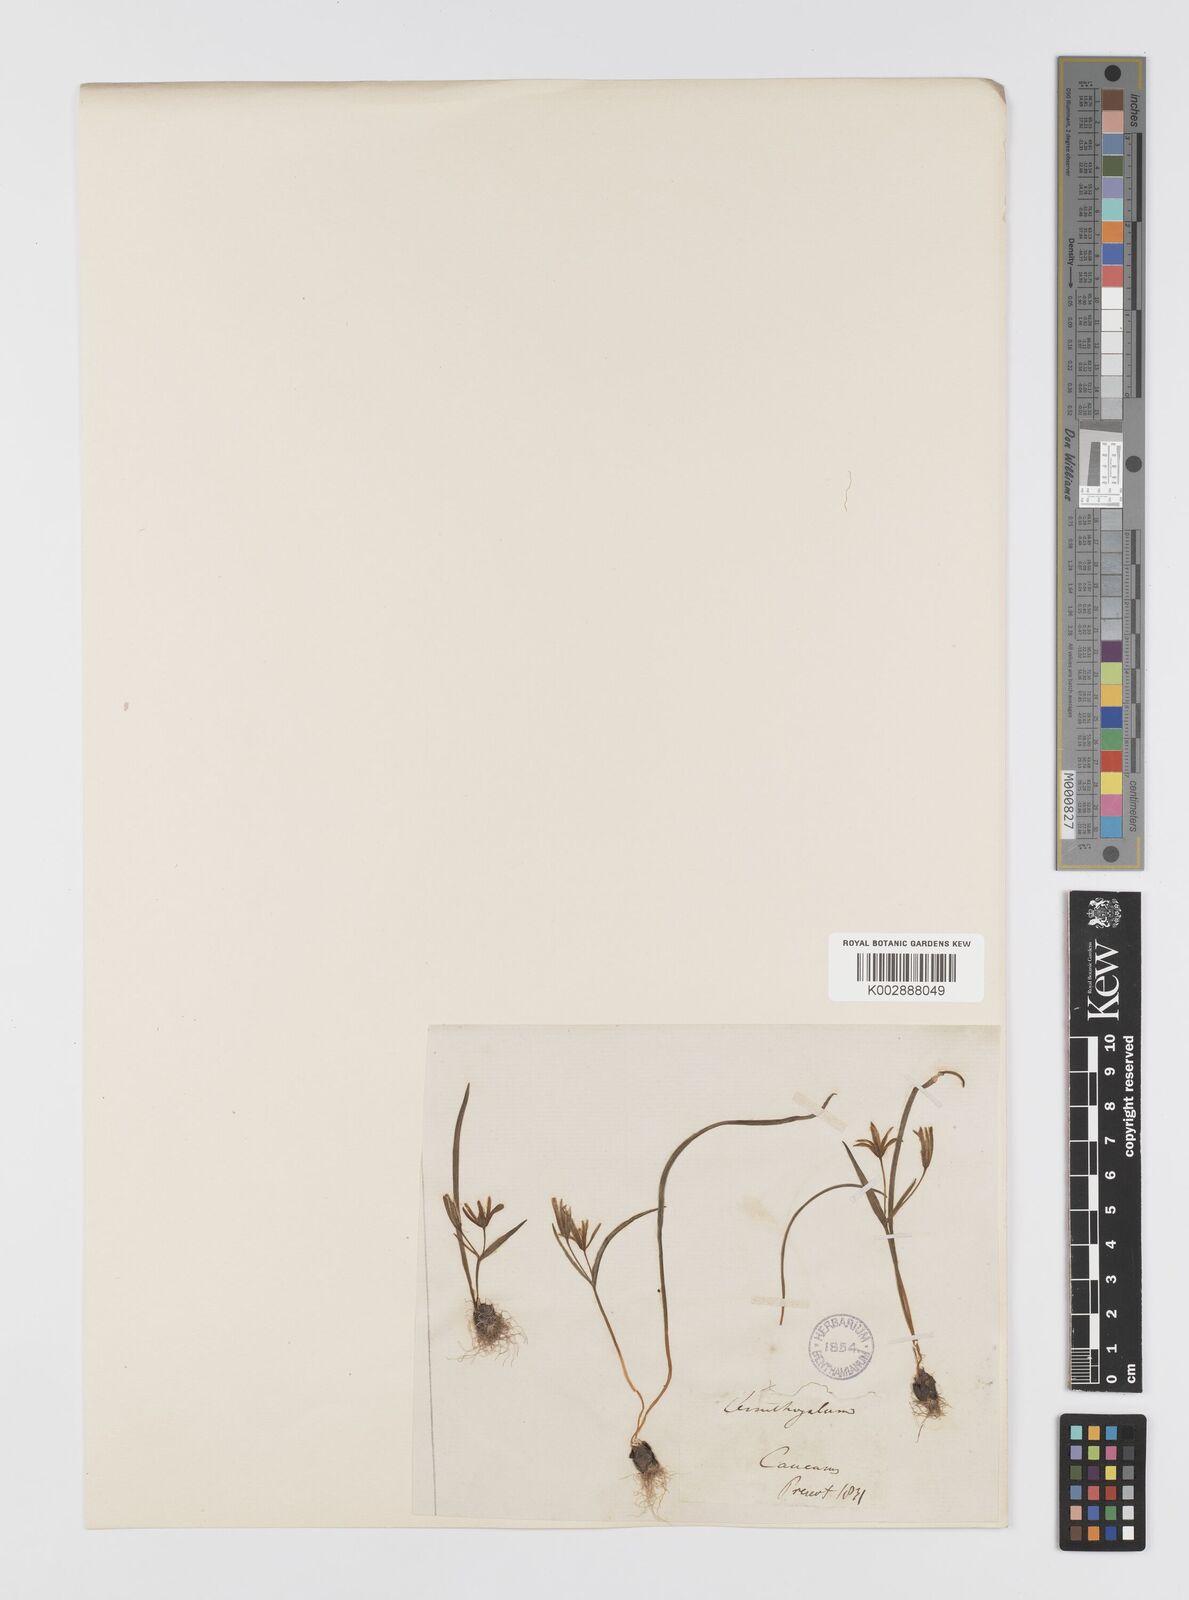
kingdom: Plantae
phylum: Tracheophyta
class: Liliopsida
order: Liliales
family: Liliaceae
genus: Gagea
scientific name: Gagea pusilla
